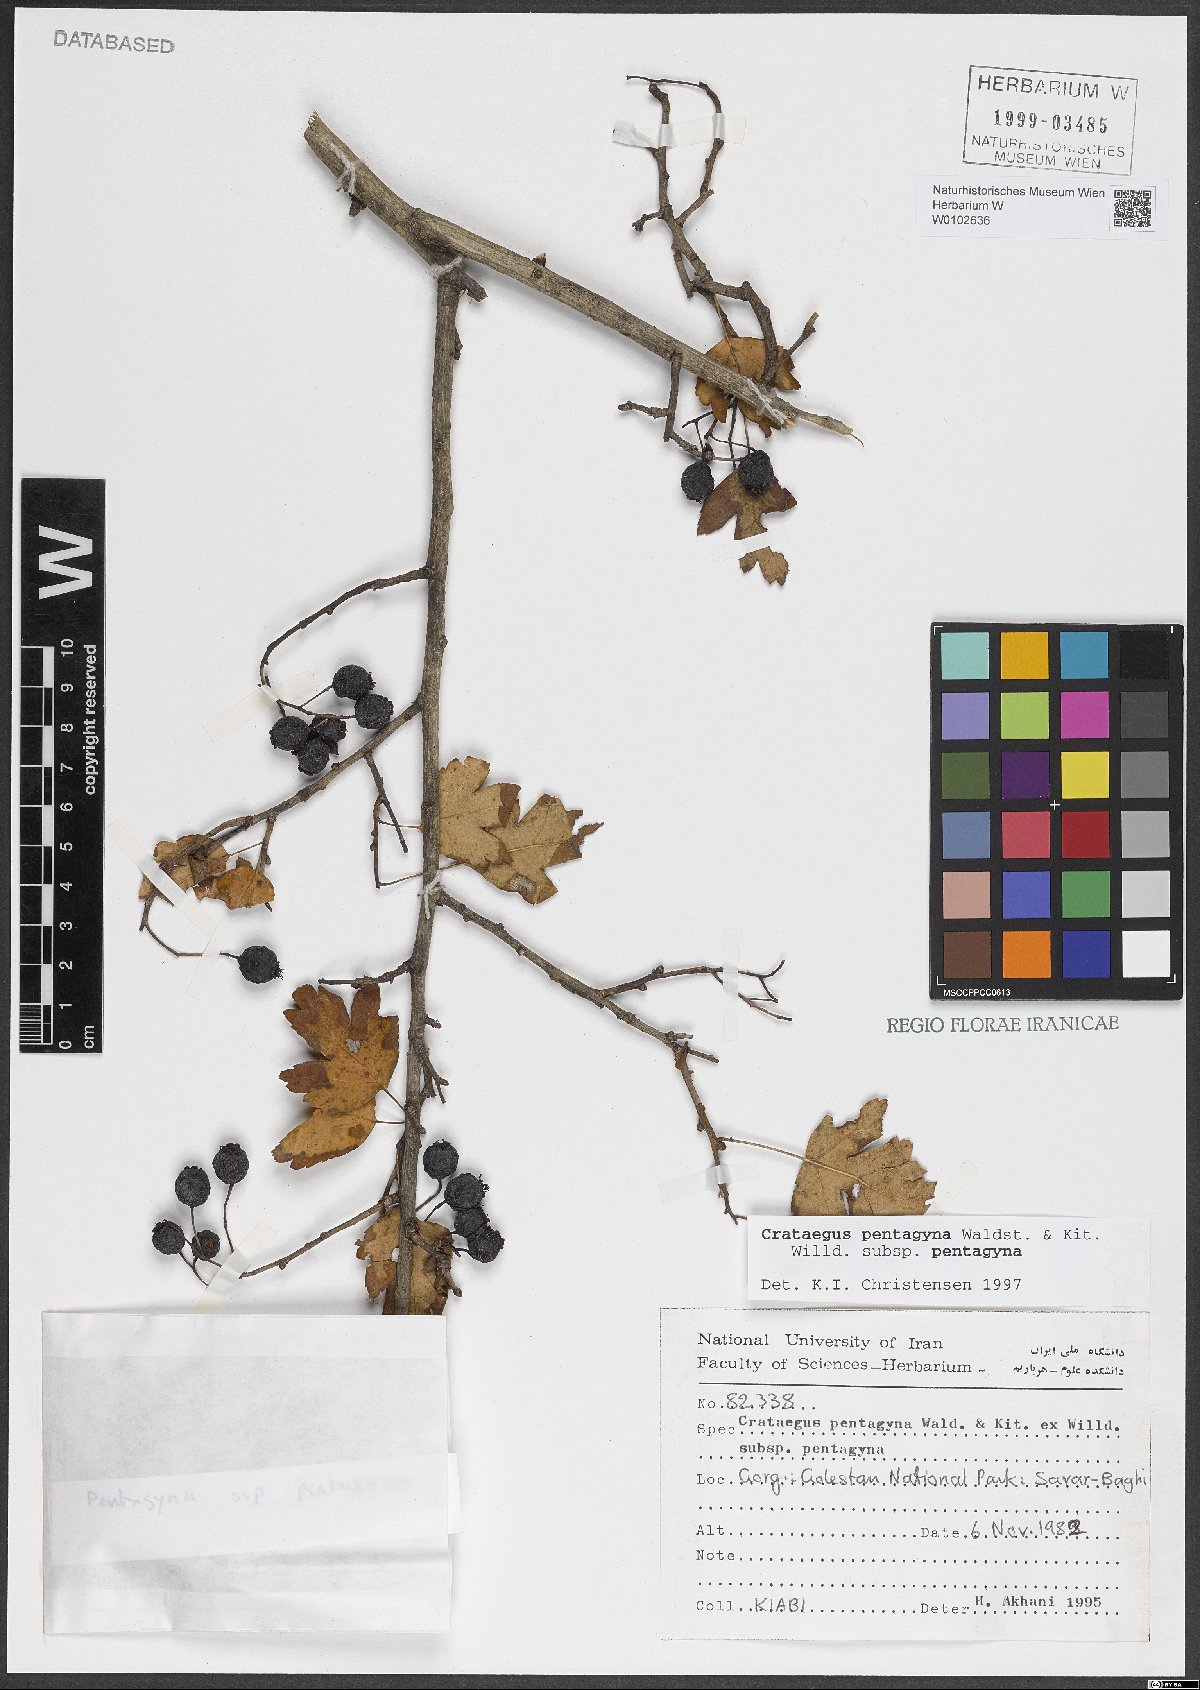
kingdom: Plantae
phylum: Tracheophyta
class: Magnoliopsida
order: Rosales
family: Rosaceae
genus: Crataegus
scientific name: Crataegus pentagyna
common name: Small-flowered black hawthorn
